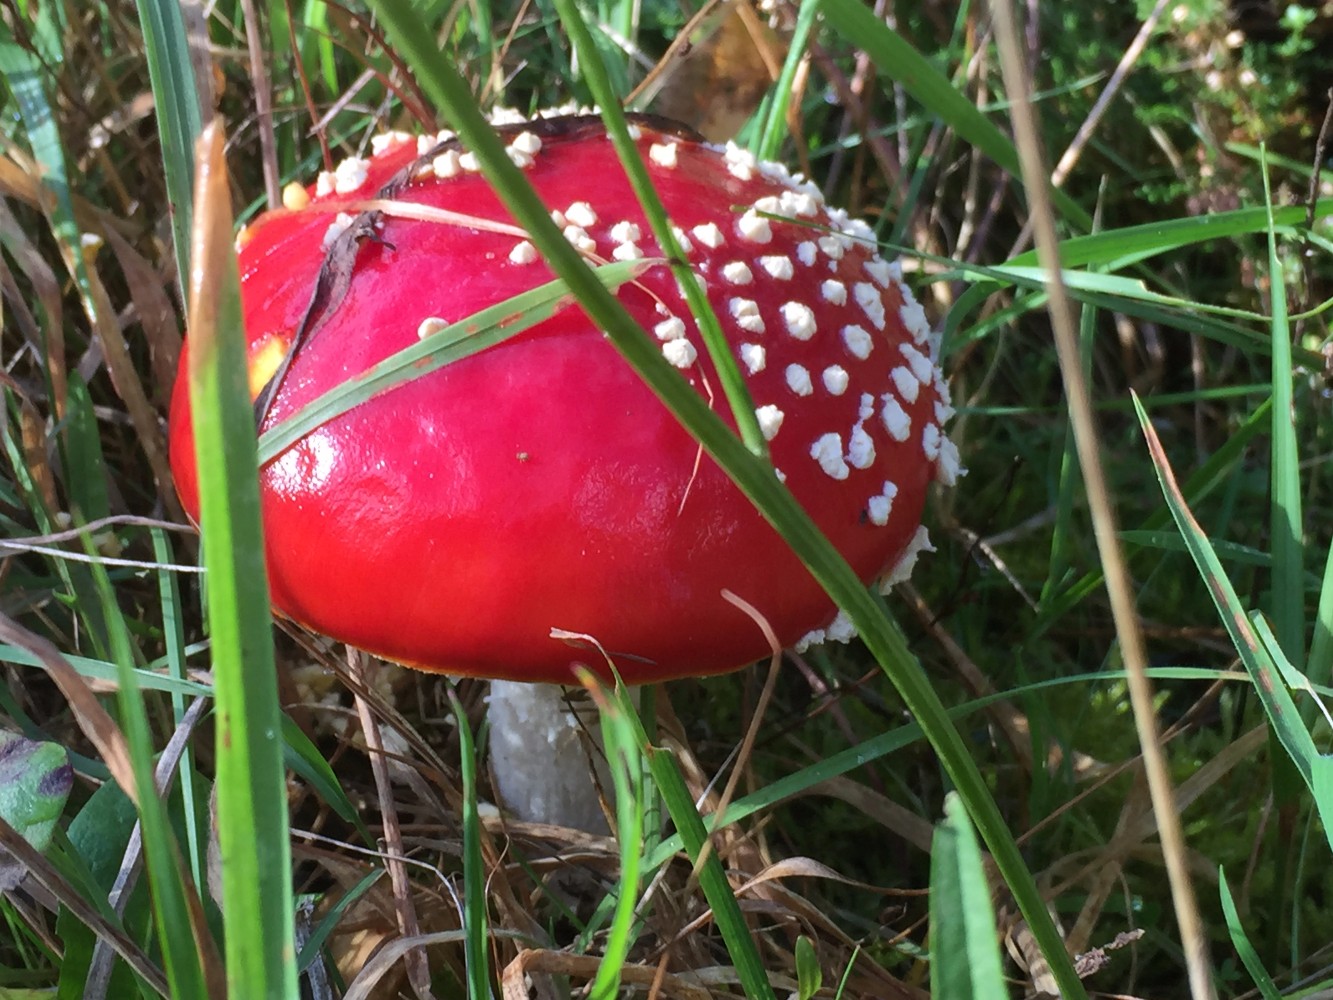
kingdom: Fungi
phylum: Basidiomycota
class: Agaricomycetes
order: Agaricales
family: Amanitaceae
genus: Amanita
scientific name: Amanita muscaria
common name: rød fluesvamp
